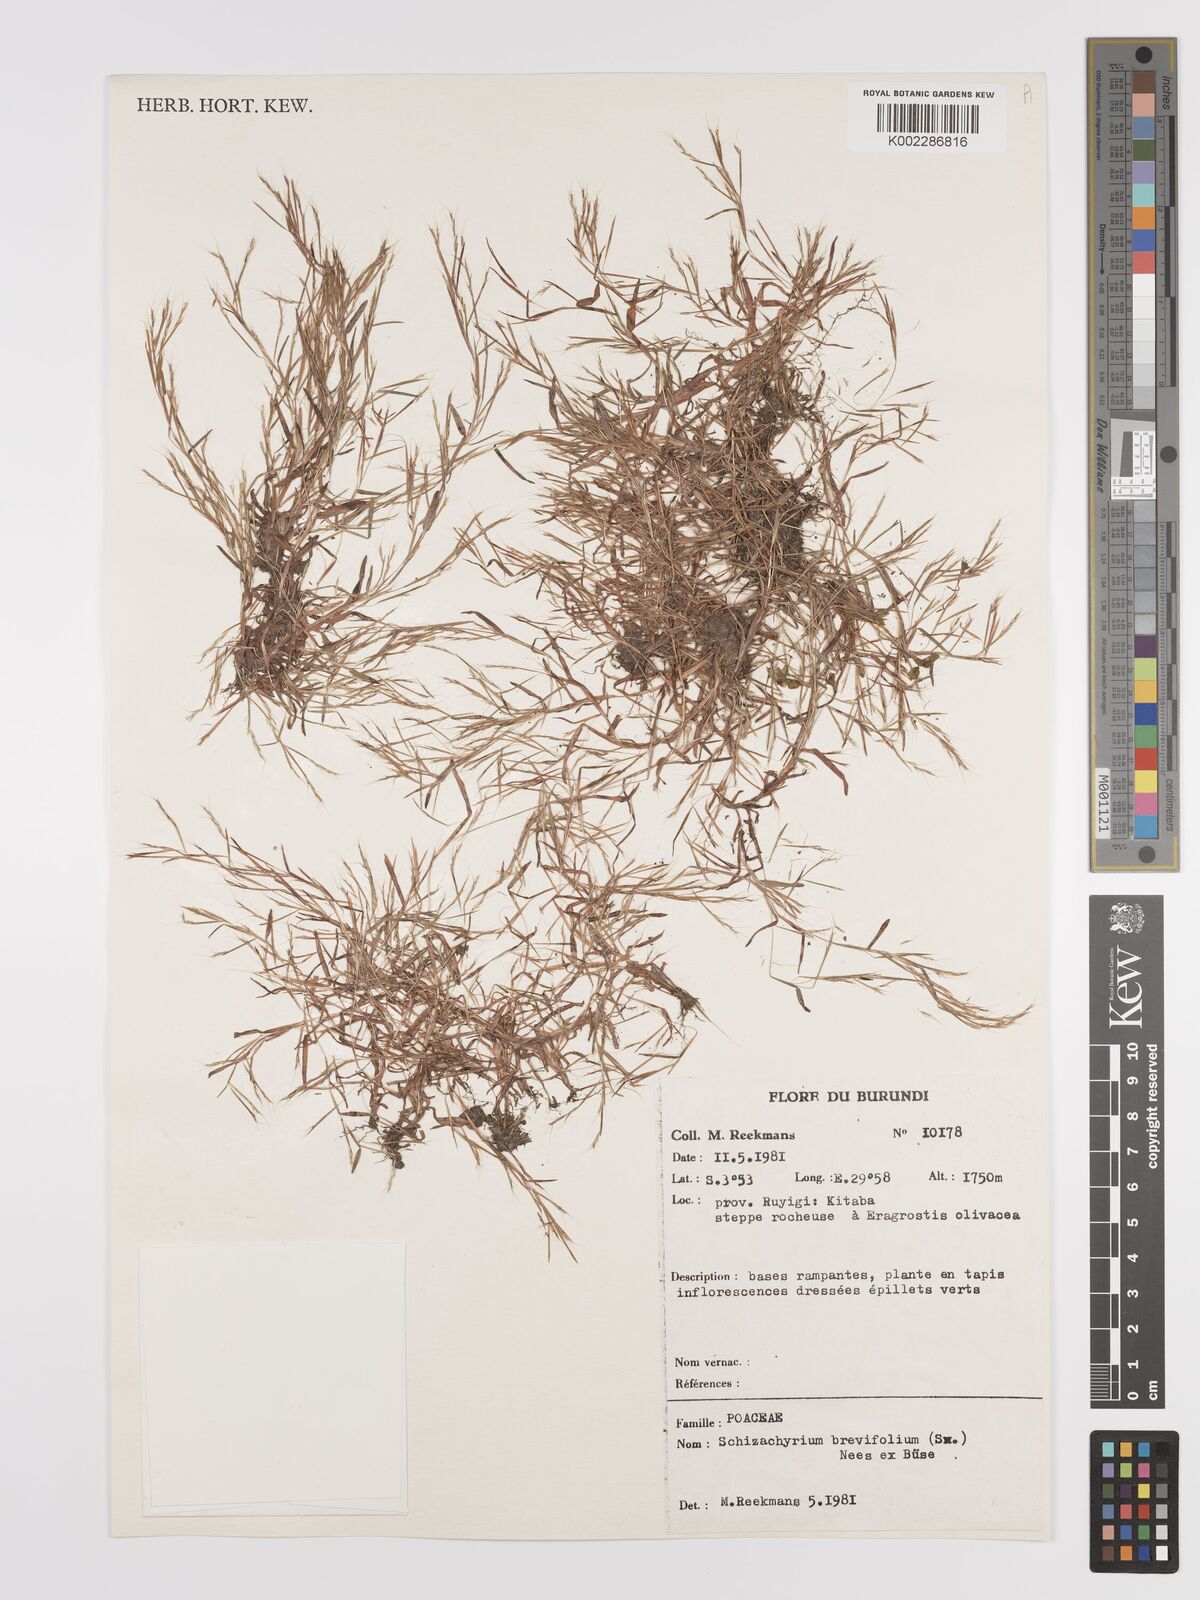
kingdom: Plantae
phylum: Tracheophyta
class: Liliopsida
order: Poales
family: Poaceae
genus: Schizachyrium
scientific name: Schizachyrium brevifolium
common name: Serillo dulce
